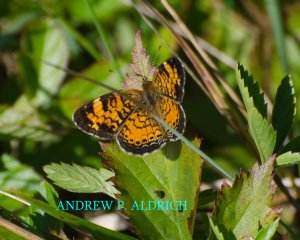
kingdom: Animalia
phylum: Arthropoda
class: Insecta
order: Lepidoptera
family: Nymphalidae
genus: Phyciodes
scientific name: Phyciodes
